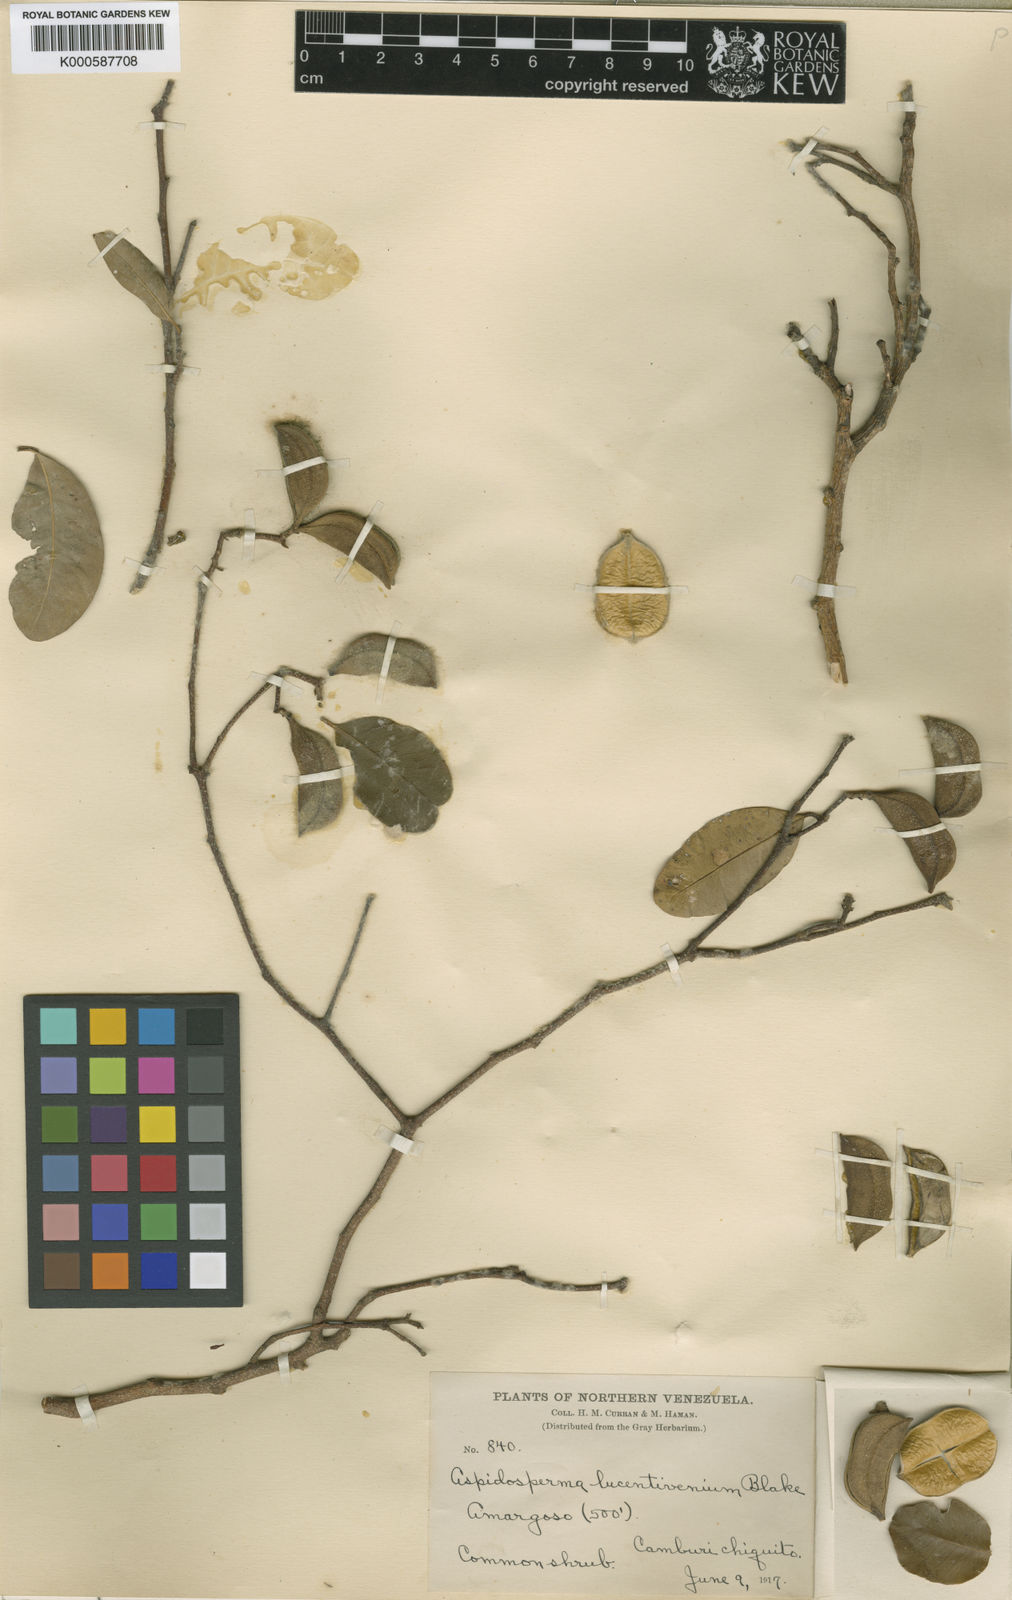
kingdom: Plantae
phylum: Tracheophyta
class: Magnoliopsida
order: Gentianales
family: Apocynaceae
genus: Aspidosperma
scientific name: Aspidosperma cuspa
